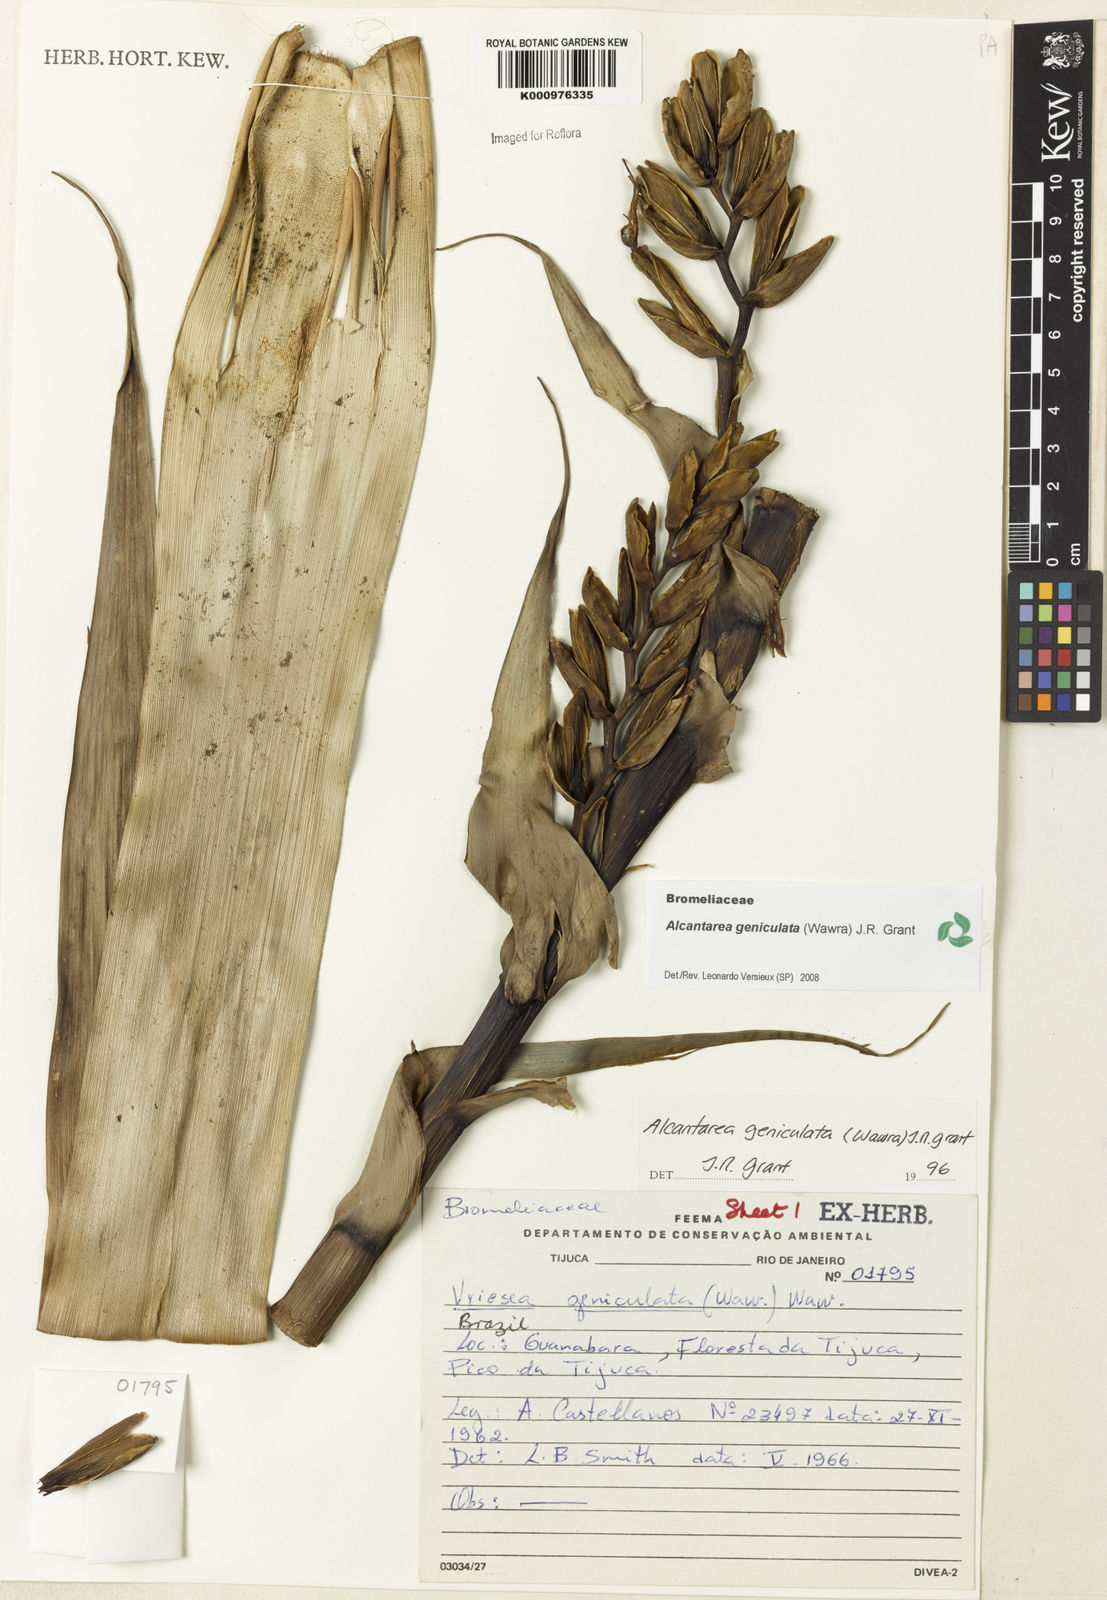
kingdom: Plantae
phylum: Tracheophyta
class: Liliopsida
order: Poales
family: Bromeliaceae
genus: Alcantarea
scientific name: Alcantarea geniculata
